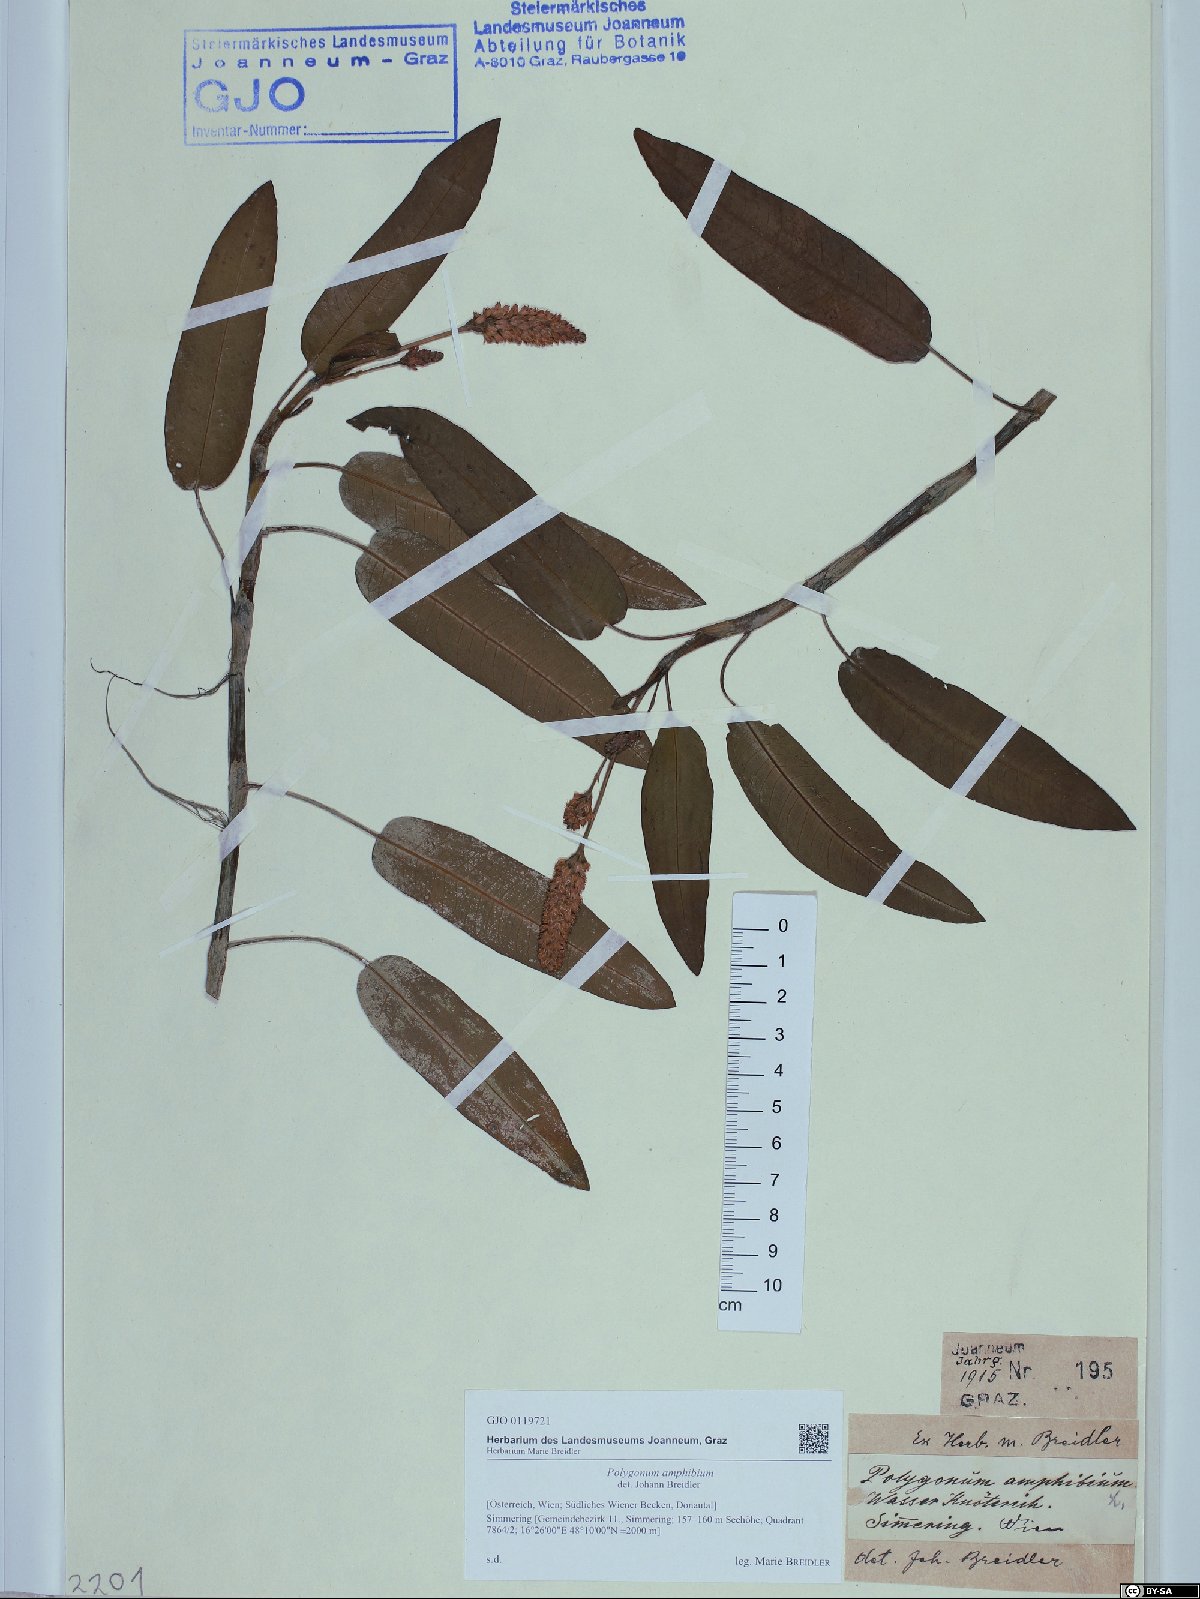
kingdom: Plantae
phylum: Tracheophyta
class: Magnoliopsida
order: Caryophyllales
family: Polygonaceae
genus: Persicaria
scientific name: Persicaria amphibia
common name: Amphibious bistort
